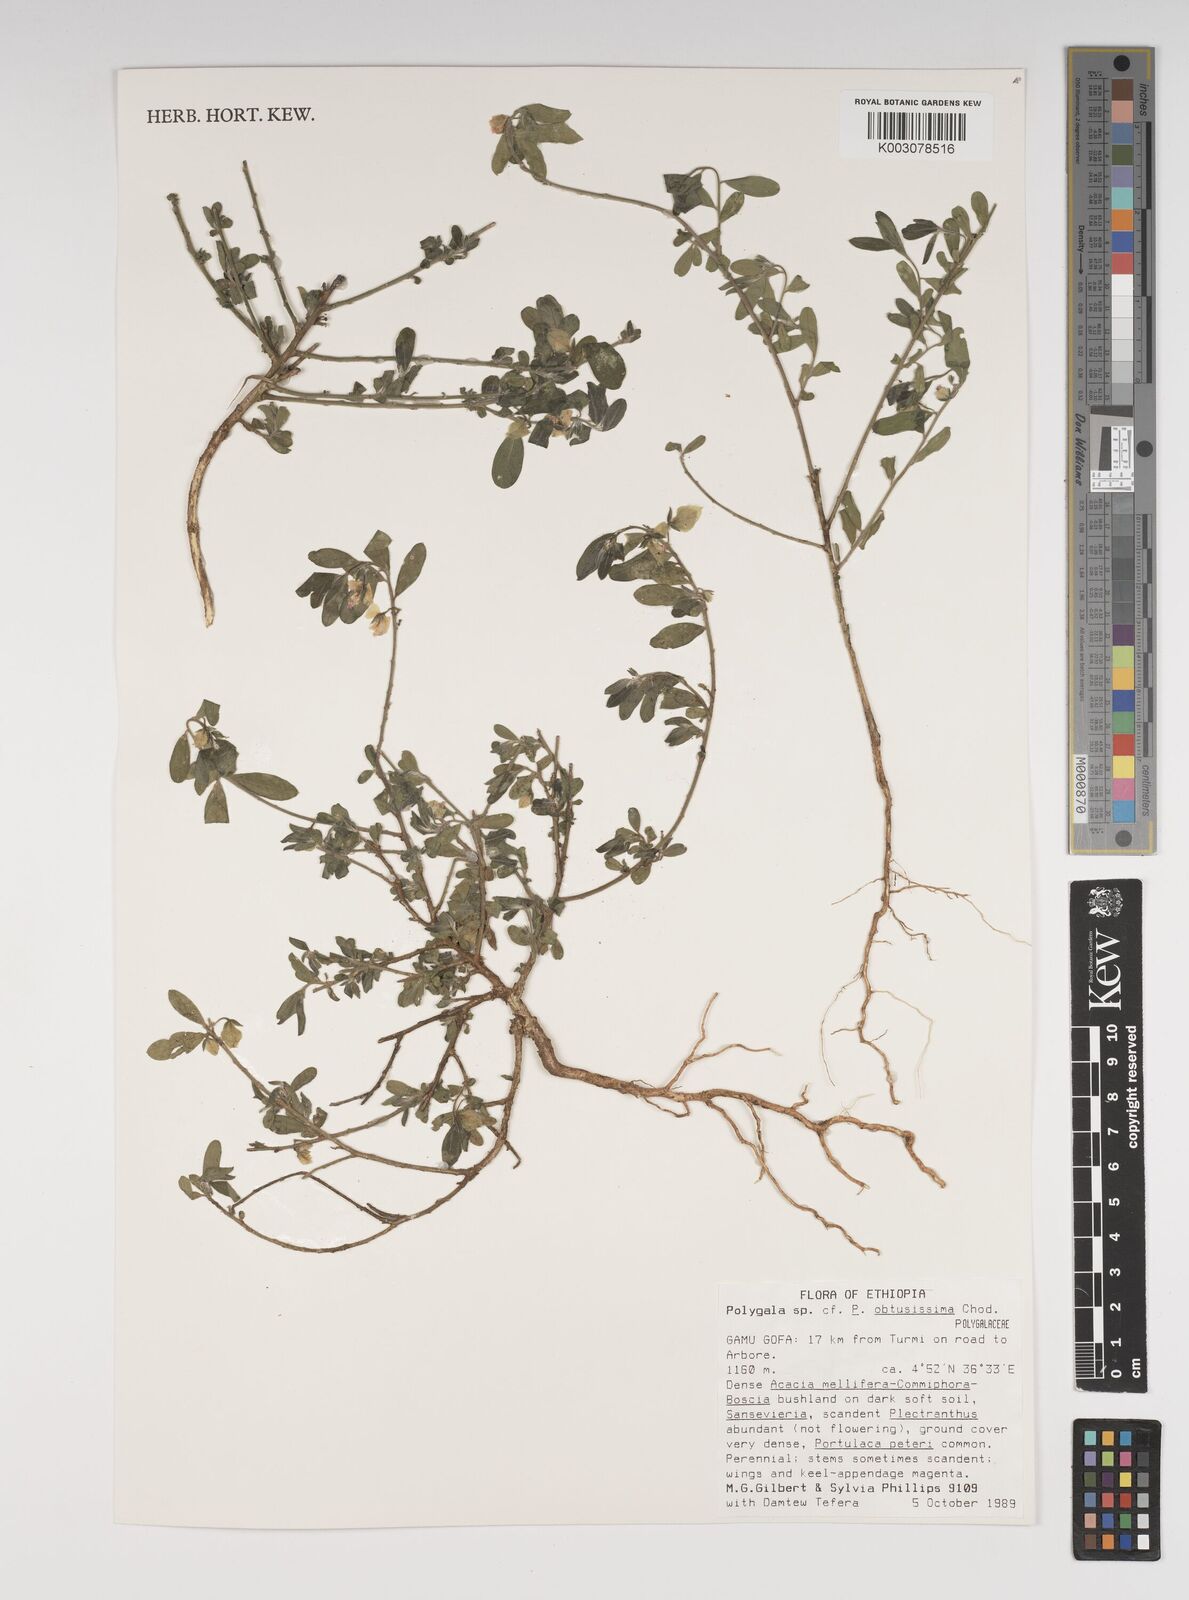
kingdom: Plantae
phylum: Tracheophyta
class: Magnoliopsida
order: Fabales
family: Polygalaceae
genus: Polygala
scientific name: Polygala senensis
